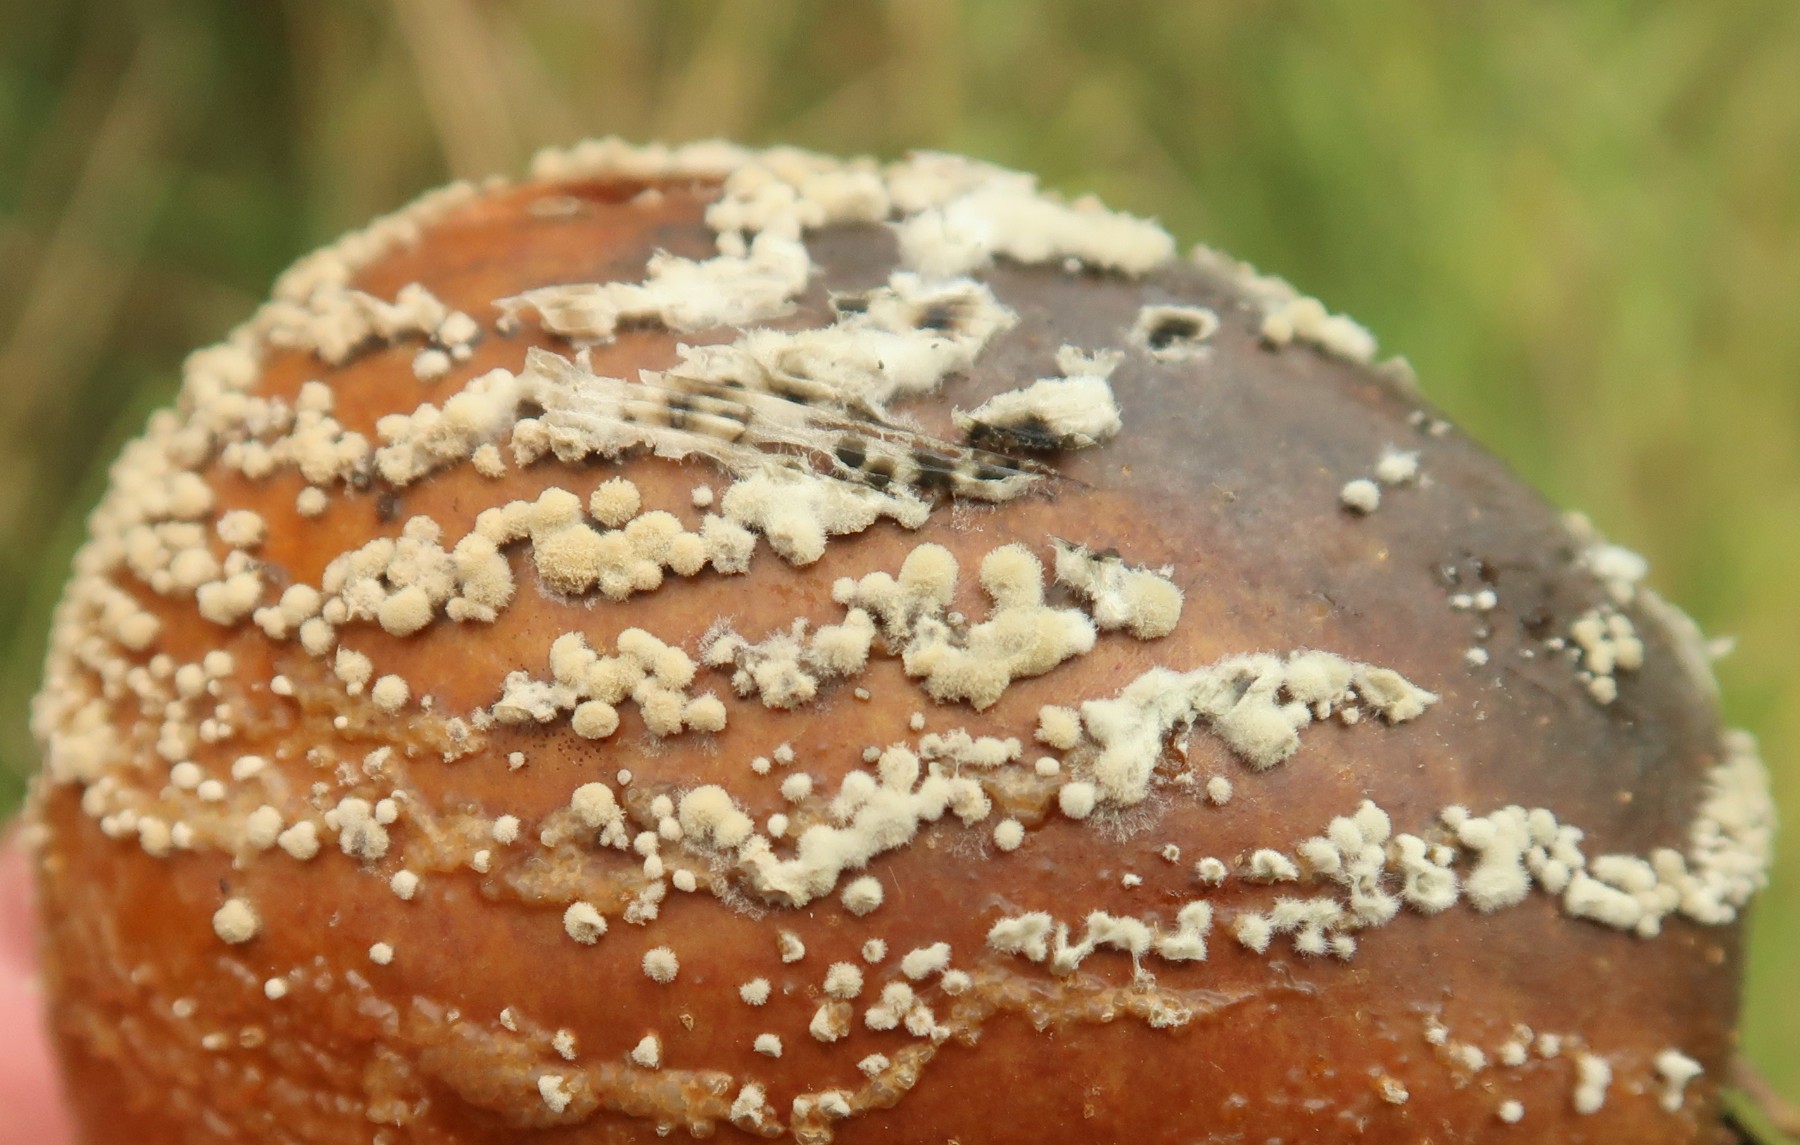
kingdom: Fungi
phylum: Ascomycota
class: Leotiomycetes
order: Helotiales
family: Sclerotiniaceae
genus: Monilinia
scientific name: Monilinia fructigena
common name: æble-knoldskive
